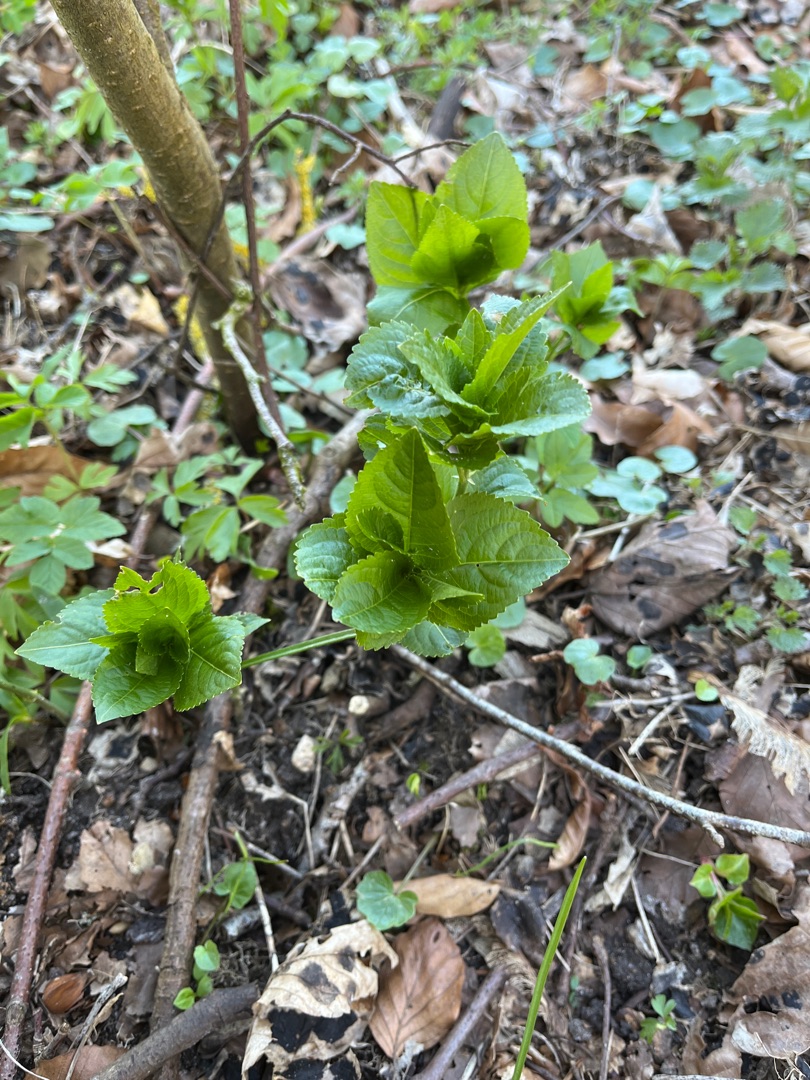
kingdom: Plantae
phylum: Tracheophyta
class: Magnoliopsida
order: Malpighiales
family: Euphorbiaceae
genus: Mercurialis
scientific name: Mercurialis perennis
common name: Almindelig bingelurt
